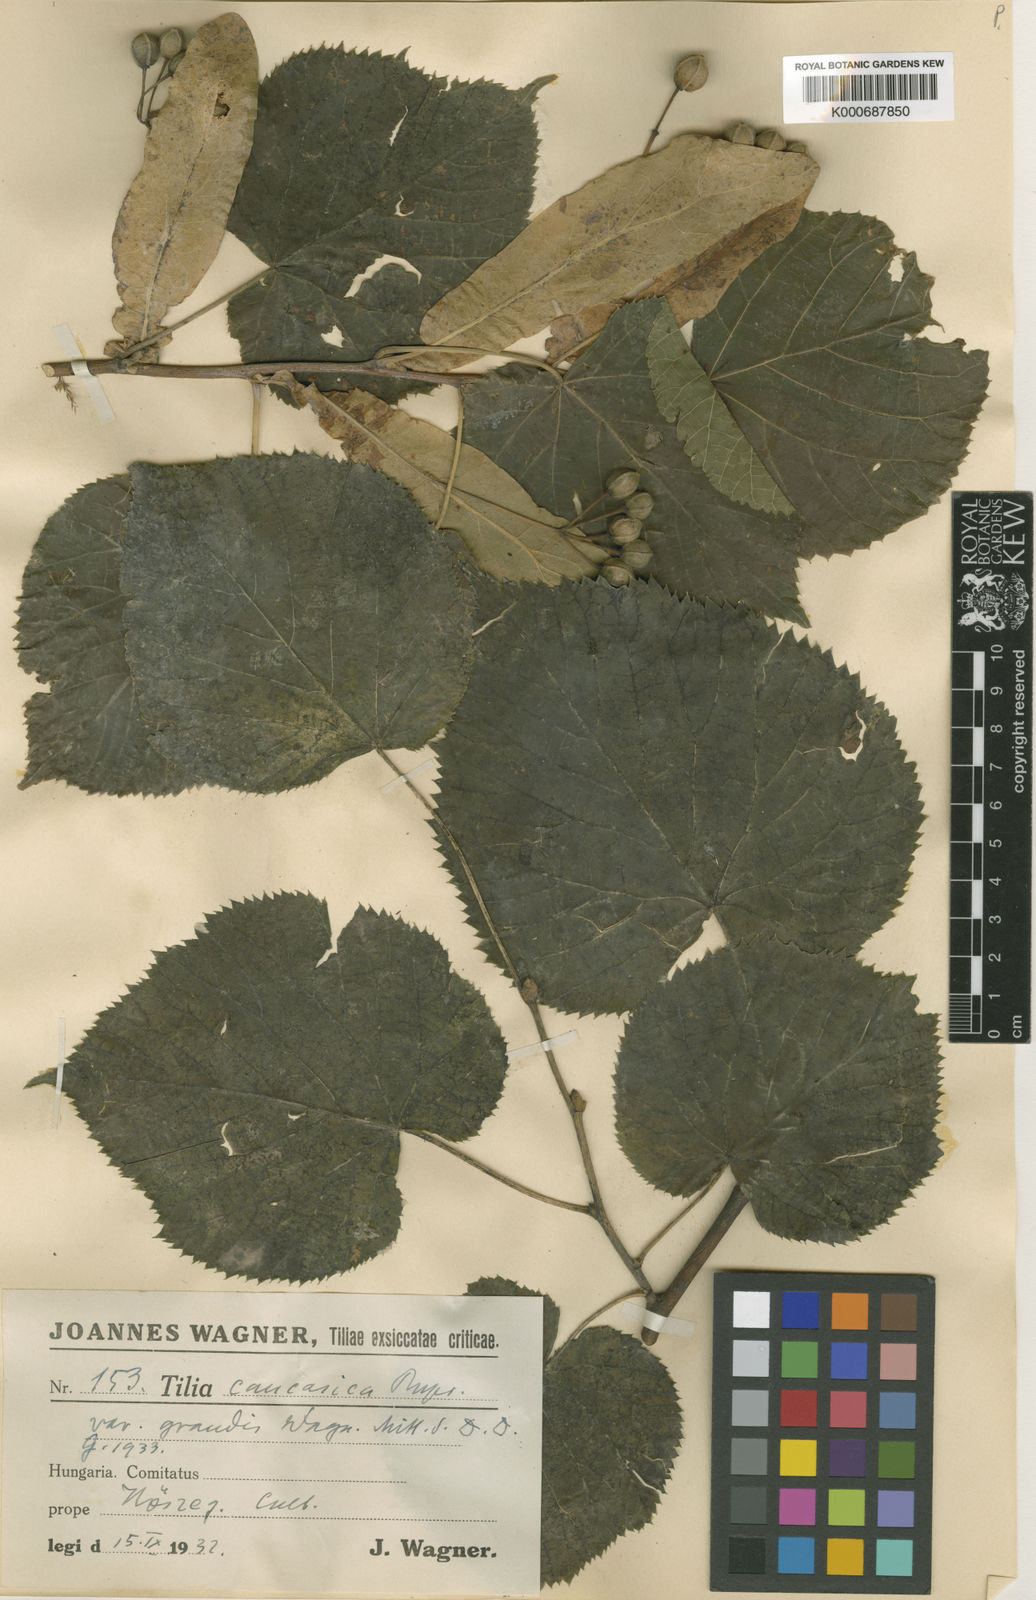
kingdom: Plantae
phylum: Tracheophyta
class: Magnoliopsida
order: Malvales
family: Malvaceae
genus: Tilia
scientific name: Tilia platyphyllos
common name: Large-leaved lime
